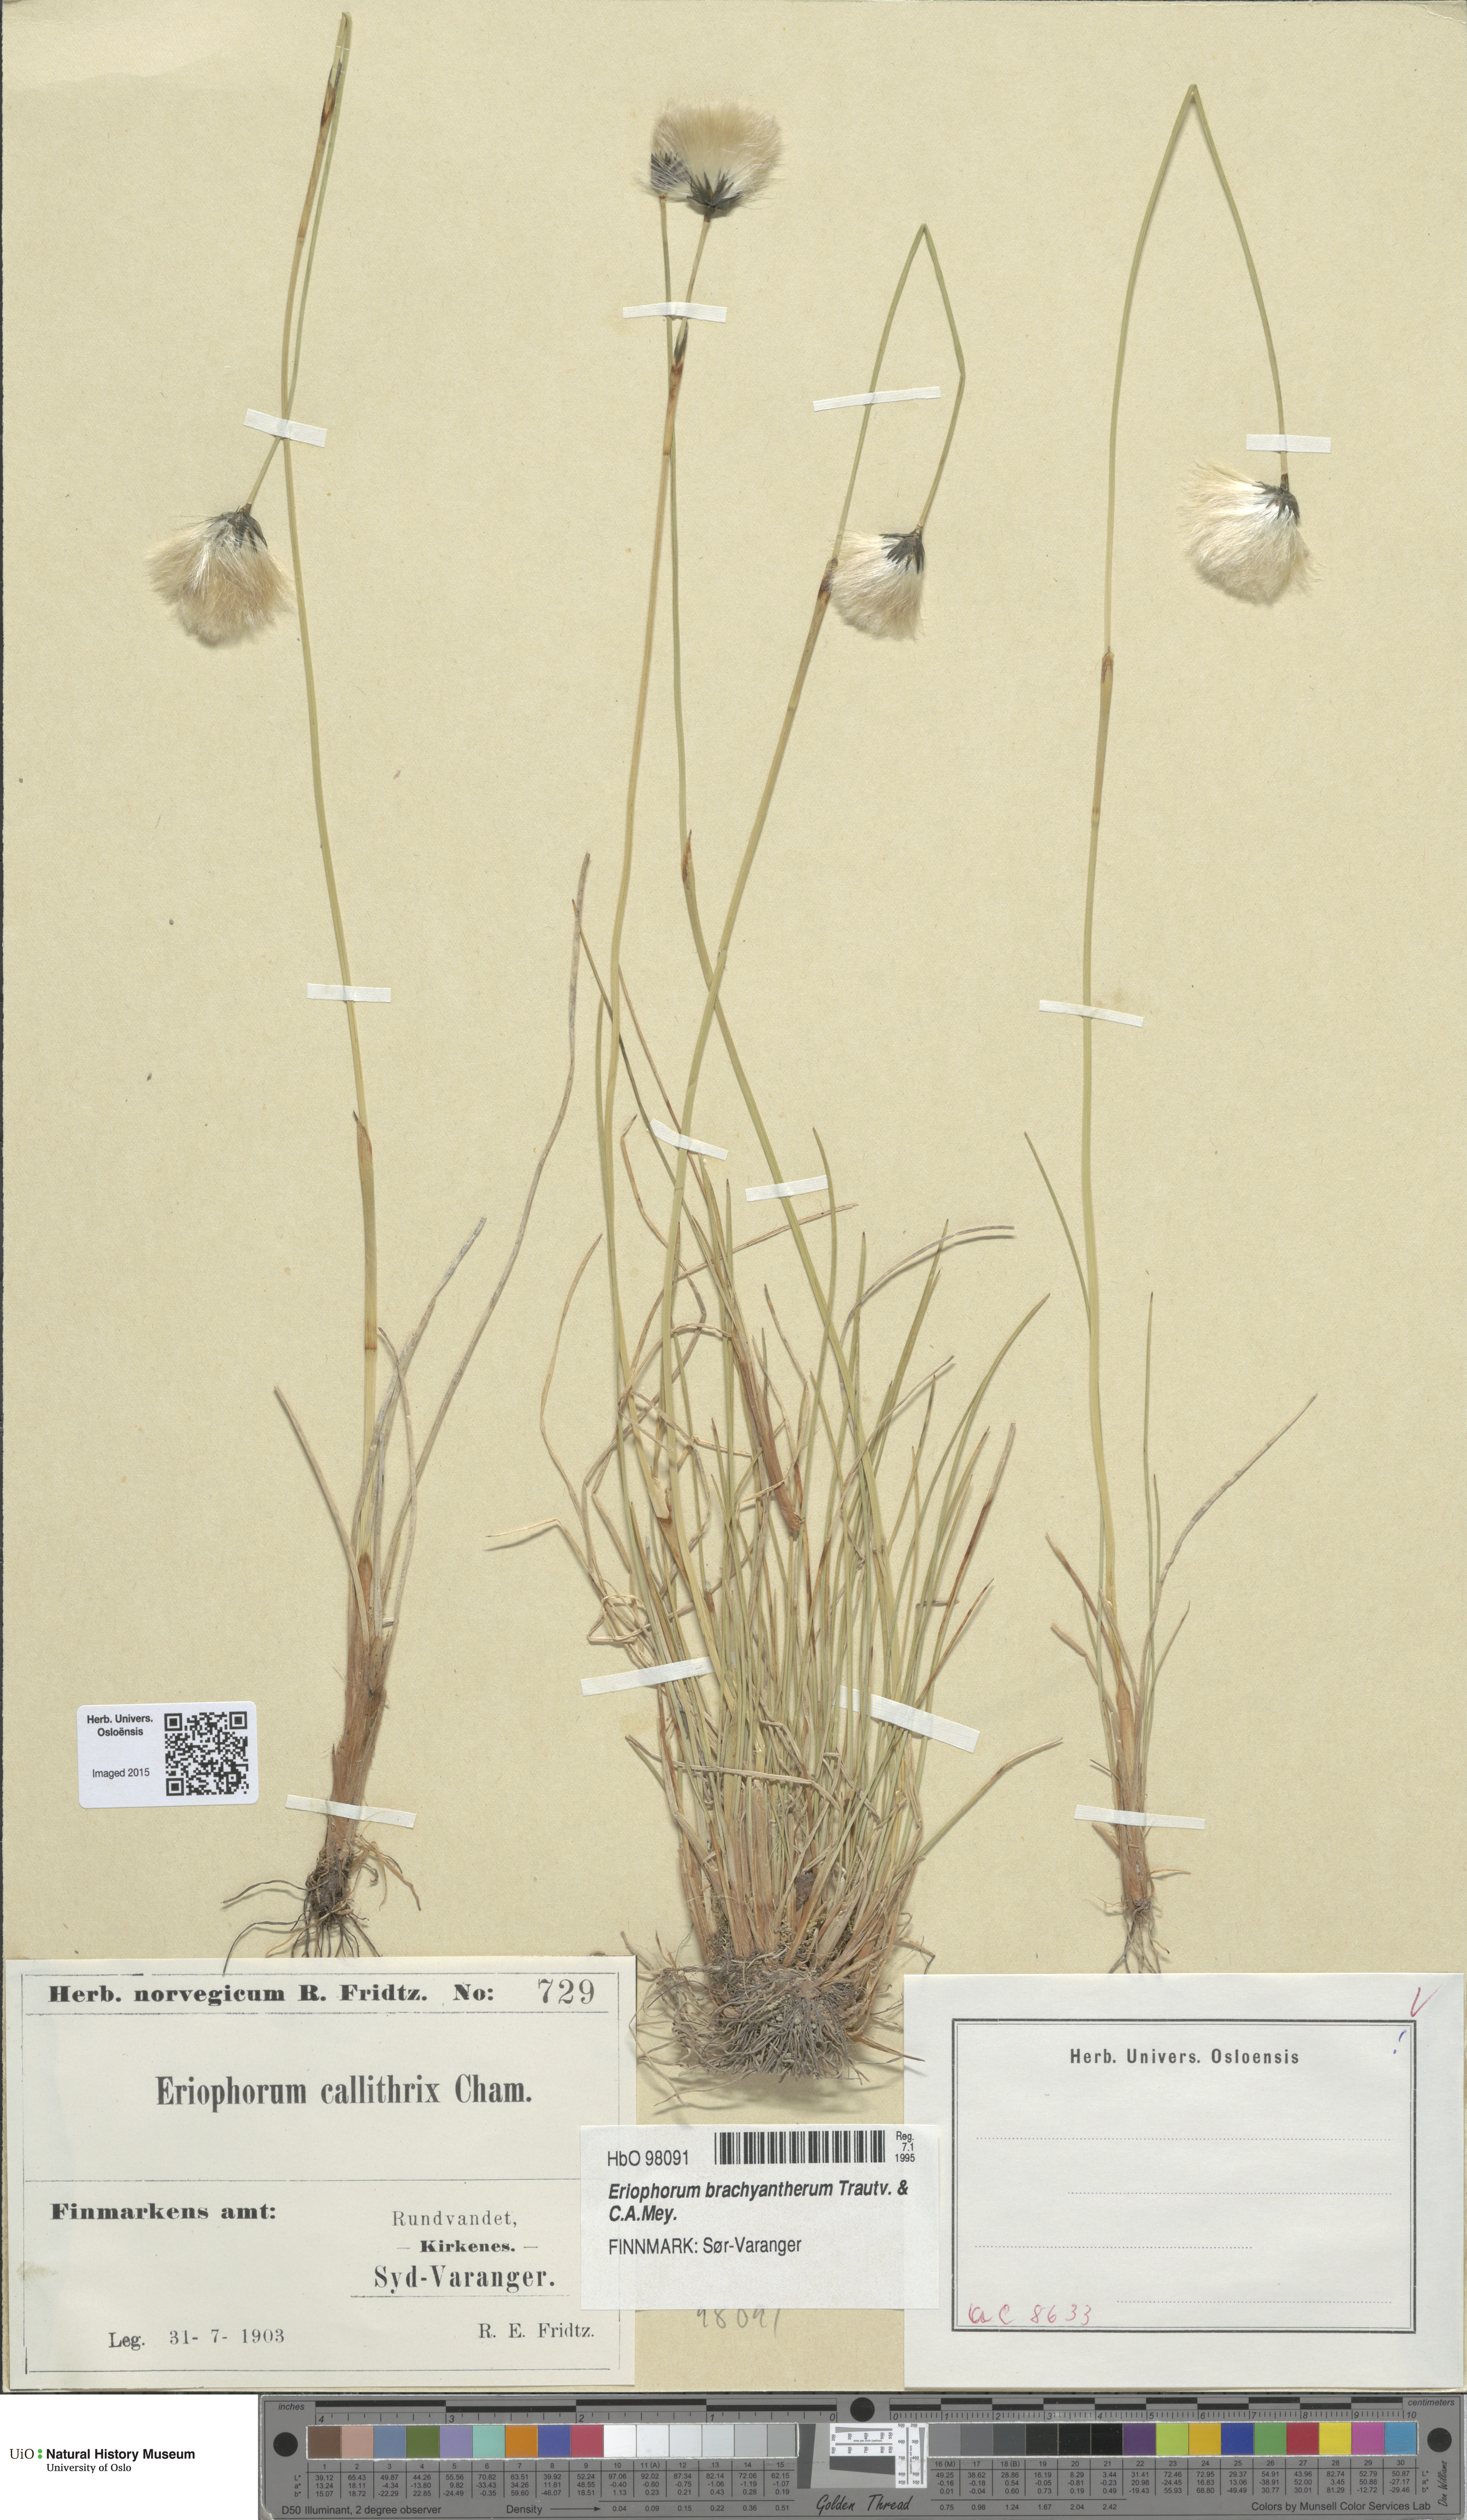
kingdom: Plantae
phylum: Tracheophyta
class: Liliopsida
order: Poales
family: Cyperaceae
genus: Eriophorum
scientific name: Eriophorum brachyantherum
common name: Closed-sheathed cottongrass
